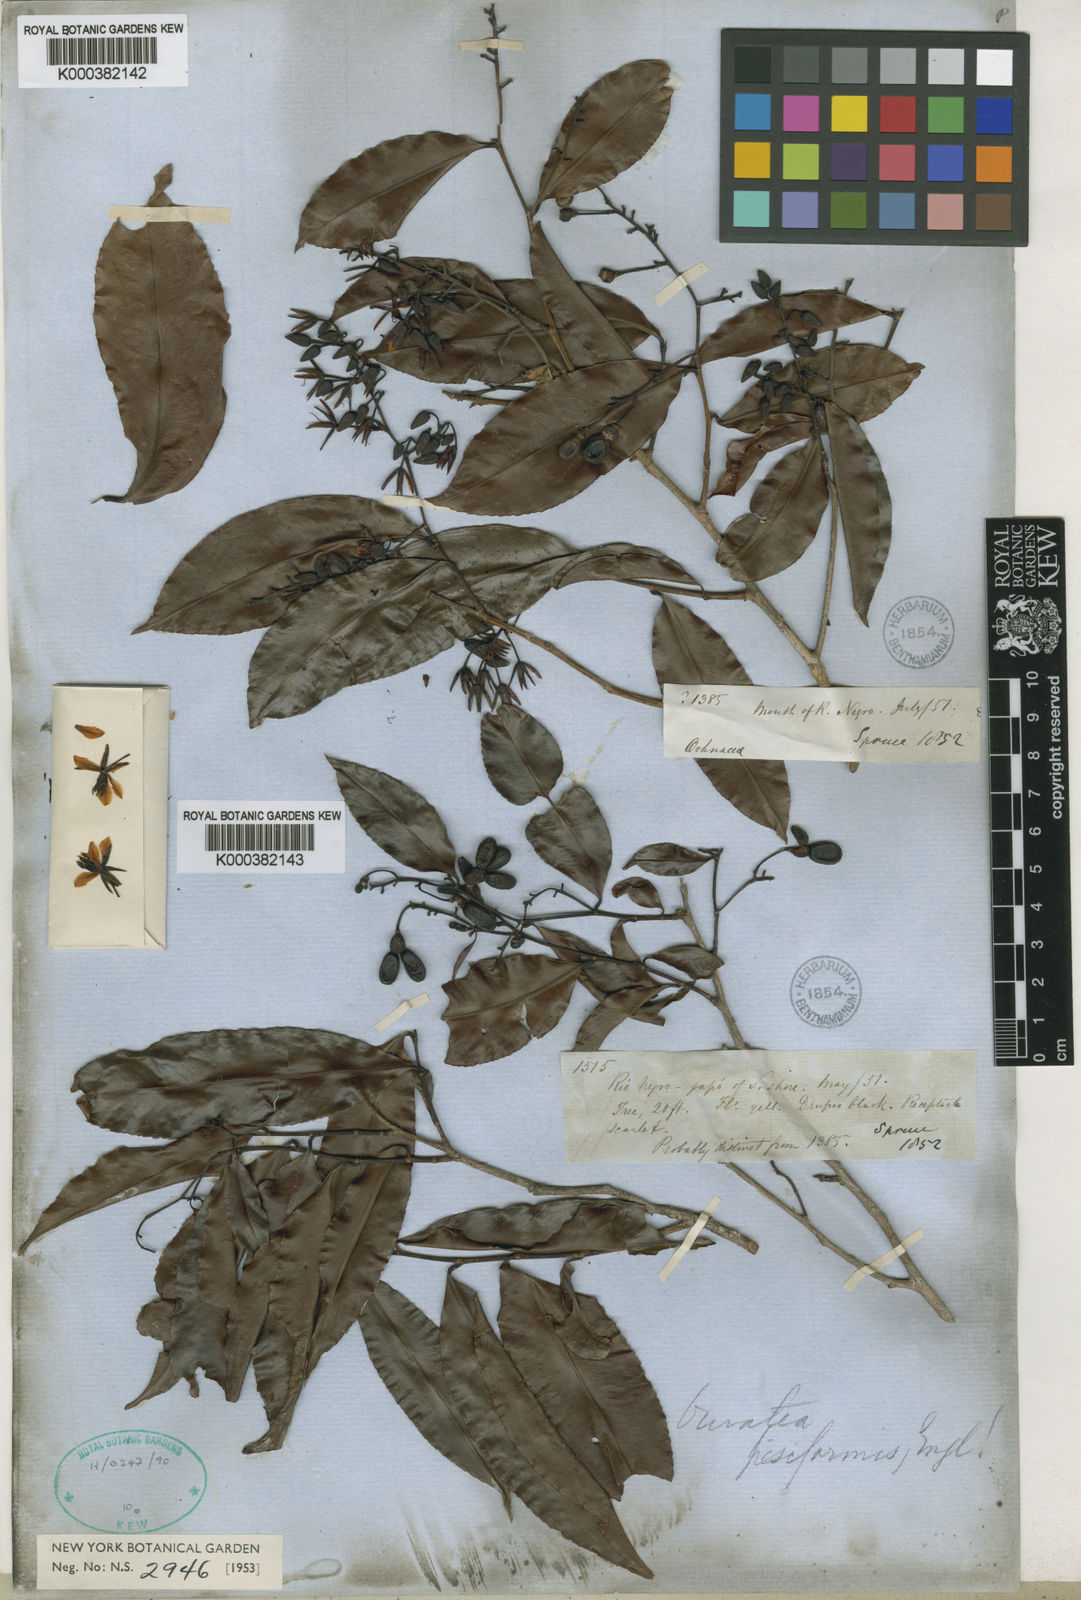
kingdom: Plantae
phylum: Tracheophyta
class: Magnoliopsida
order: Malpighiales
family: Ochnaceae
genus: Ouratea
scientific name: Ouratea pisiformis
